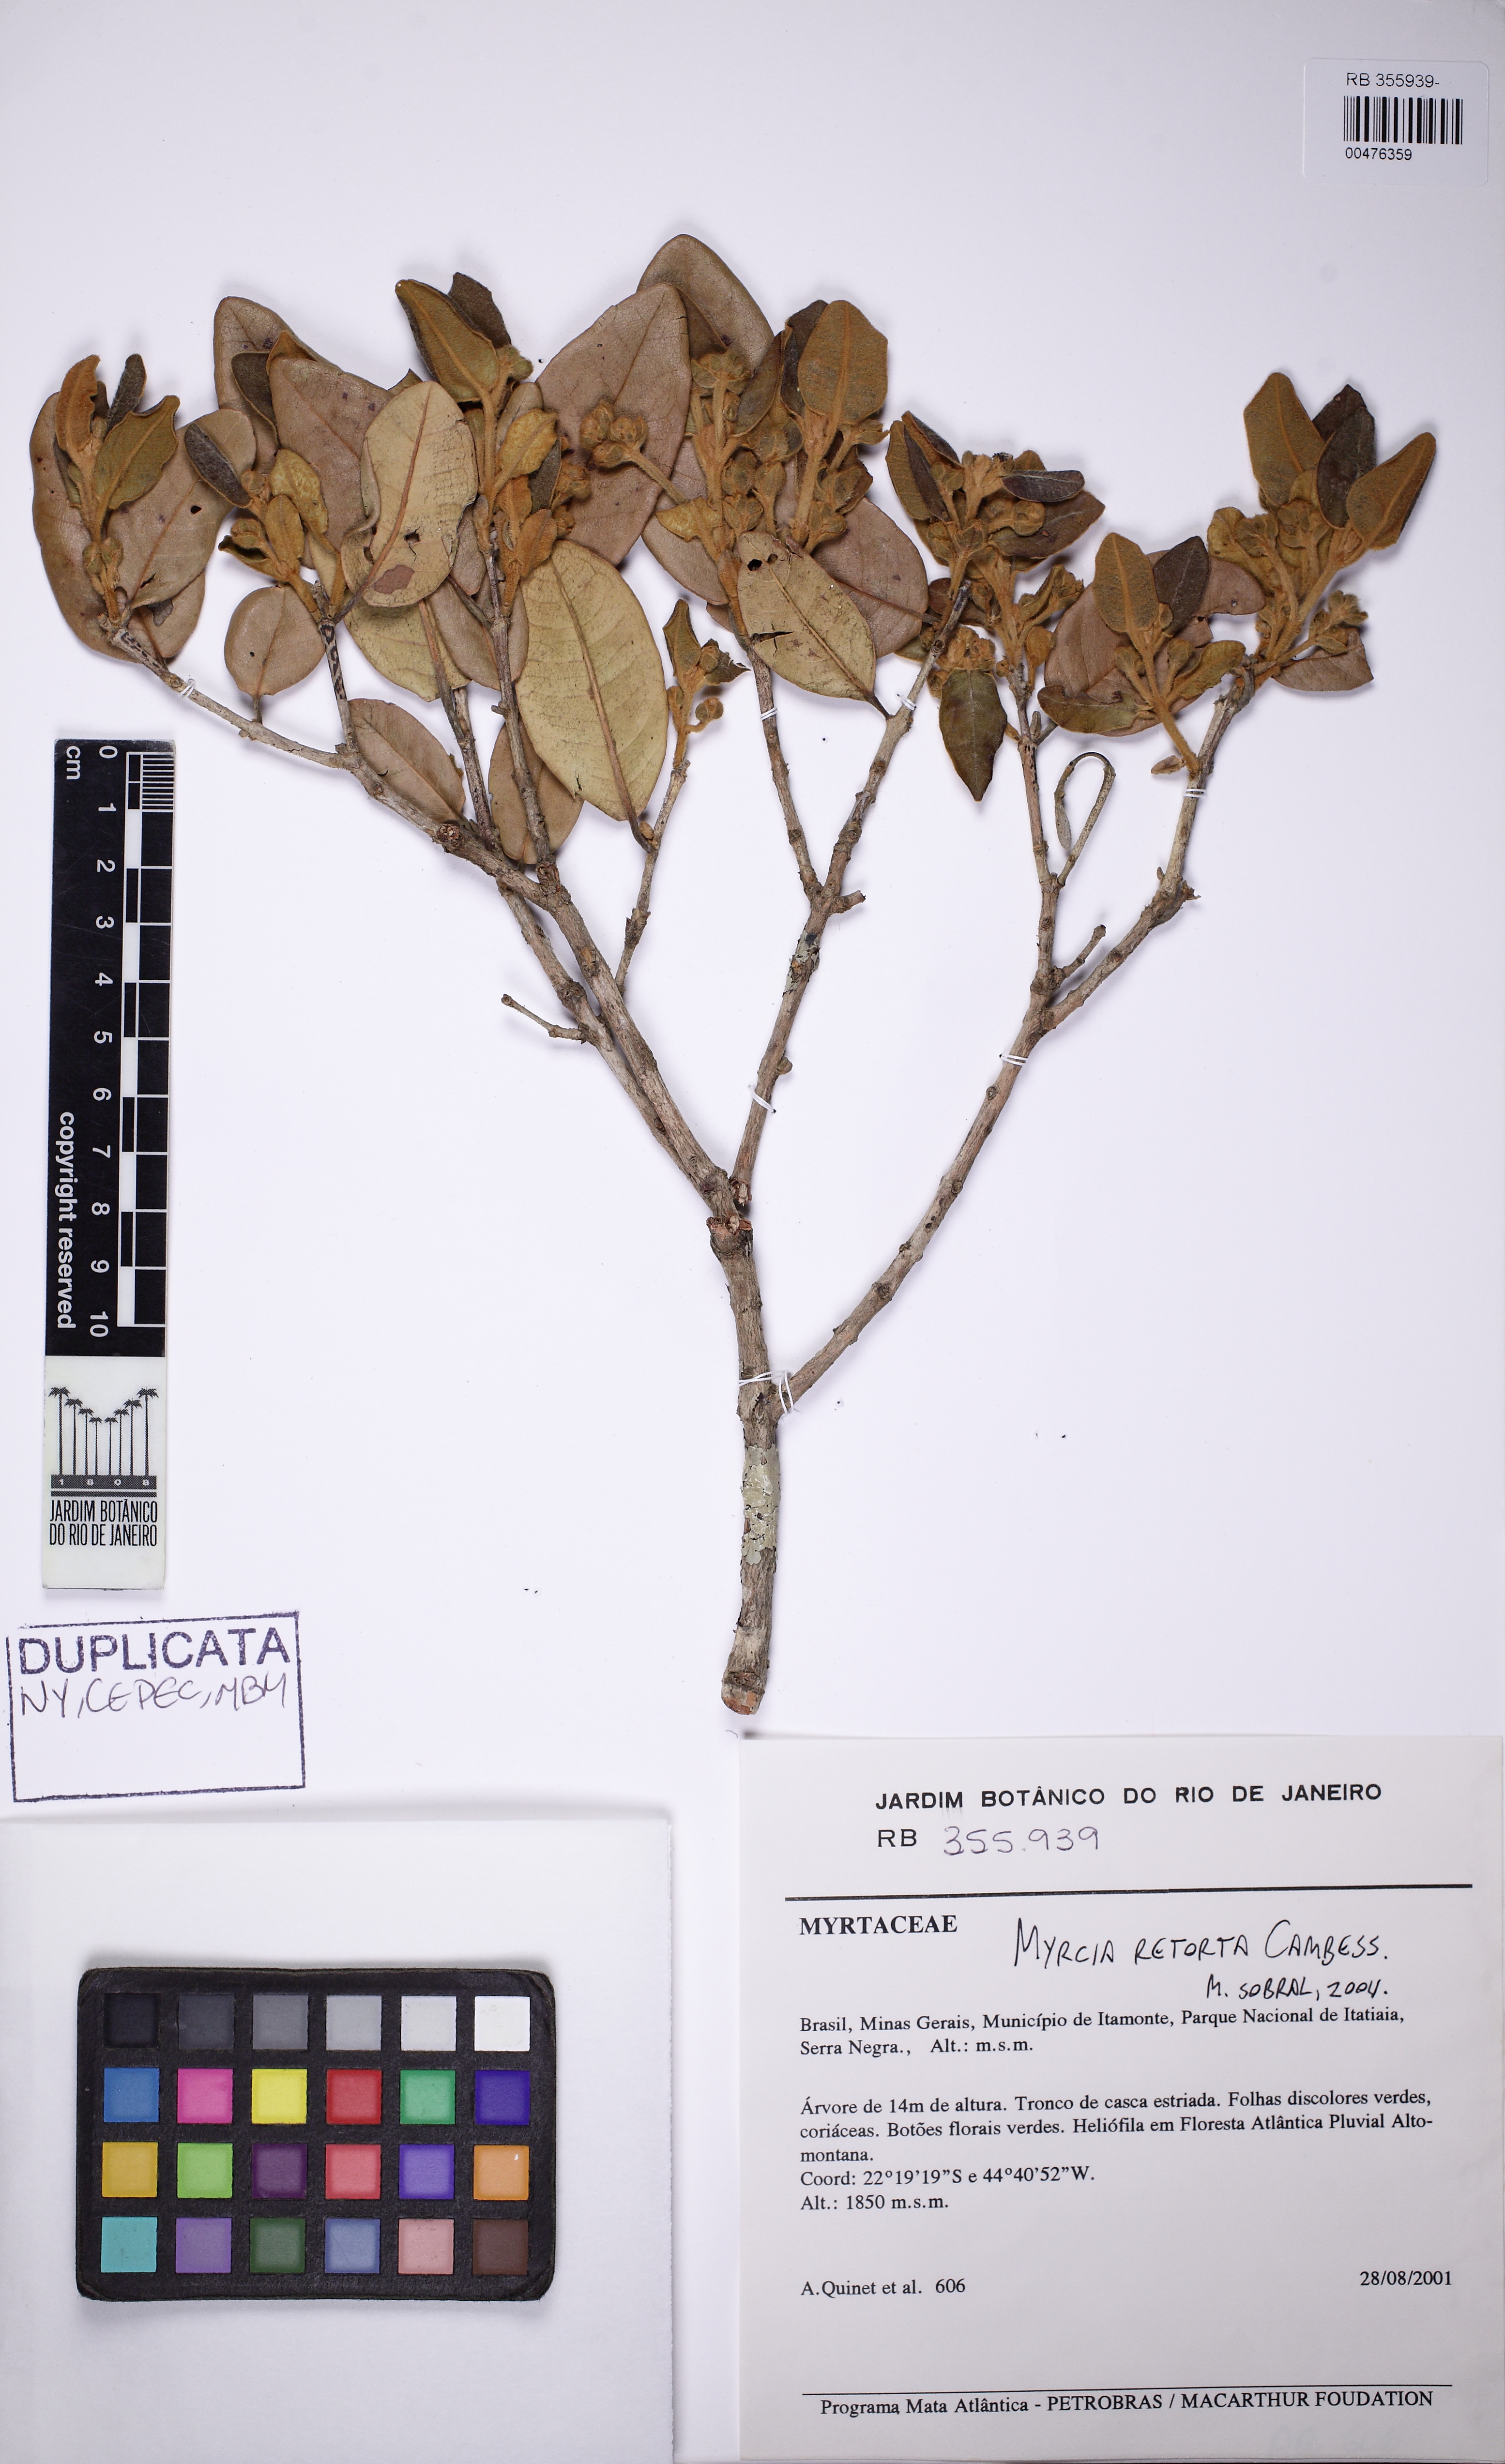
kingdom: Plantae
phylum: Tracheophyta
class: Magnoliopsida
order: Myrtales
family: Myrtaceae
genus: Myrcia
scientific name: Myrcia retorta
